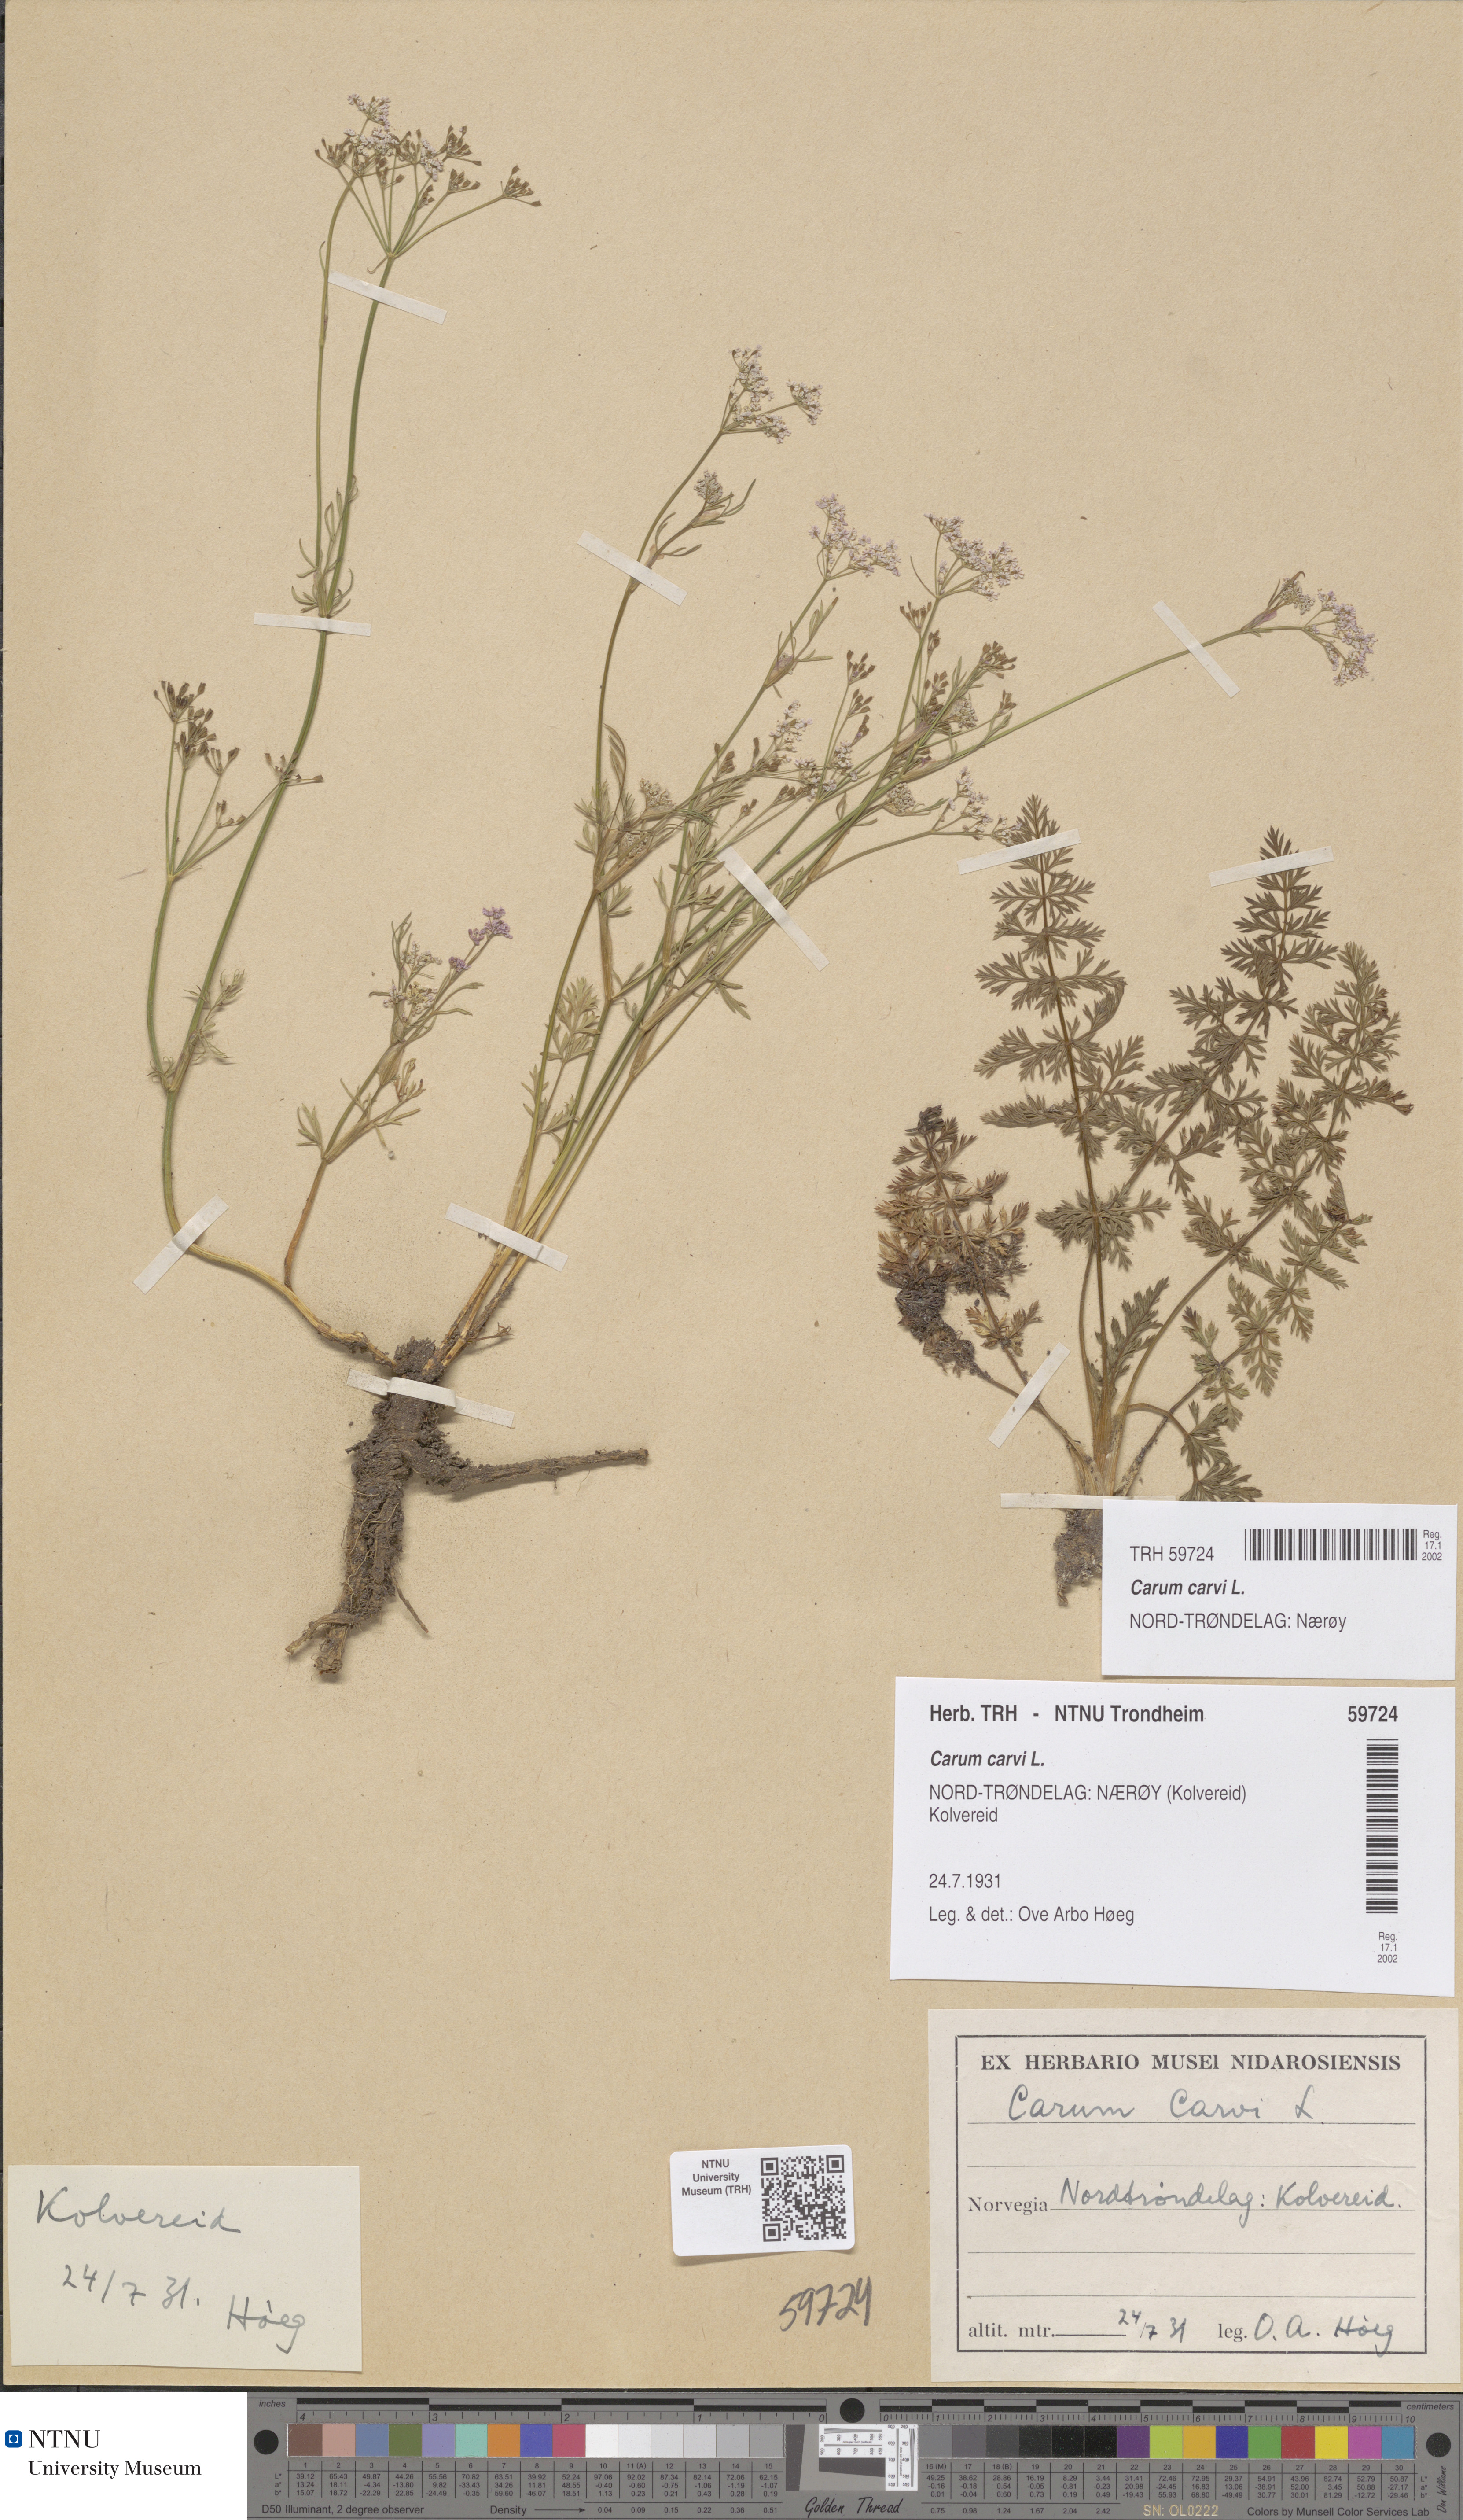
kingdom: Plantae
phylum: Tracheophyta
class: Magnoliopsida
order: Apiales
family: Apiaceae
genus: Carum
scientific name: Carum carvi
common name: Caraway
